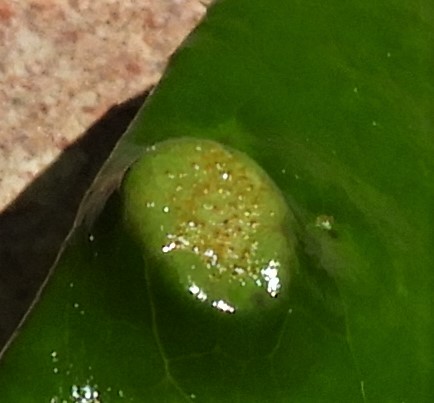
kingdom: Fungi
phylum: Basidiomycota
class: Pucciniomycetes
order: Pucciniales
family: Pucciniaceae
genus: Cumminsiella
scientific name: Cumminsiella mirabilissima
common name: mahonierust
